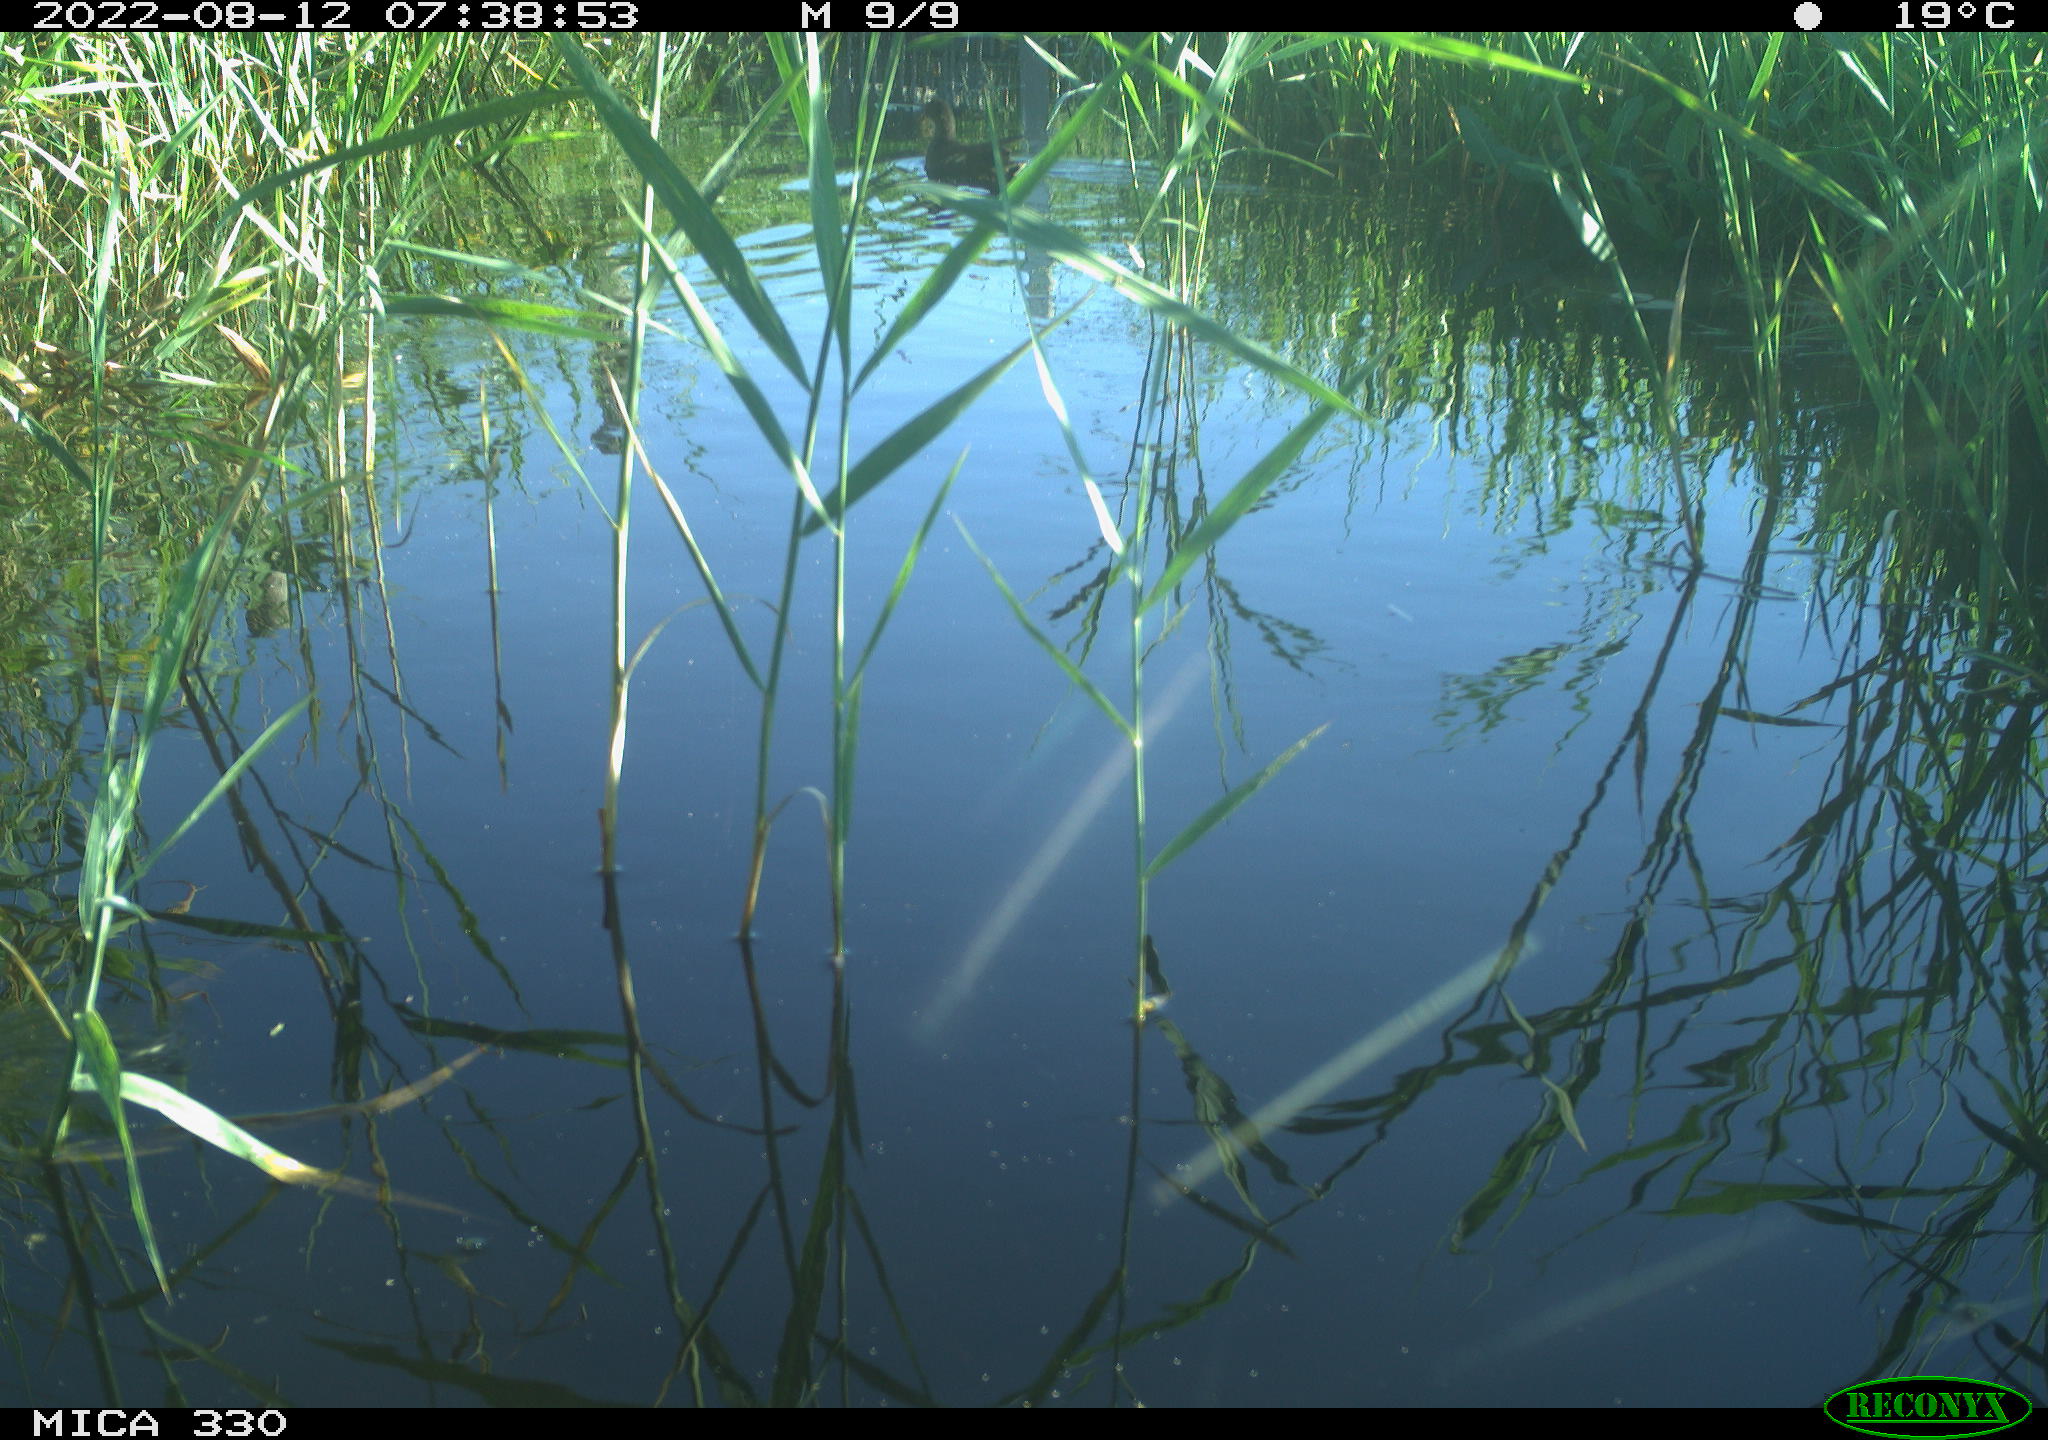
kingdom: Animalia
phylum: Chordata
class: Aves
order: Gruiformes
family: Rallidae
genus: Gallinula
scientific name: Gallinula chloropus
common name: Common moorhen
